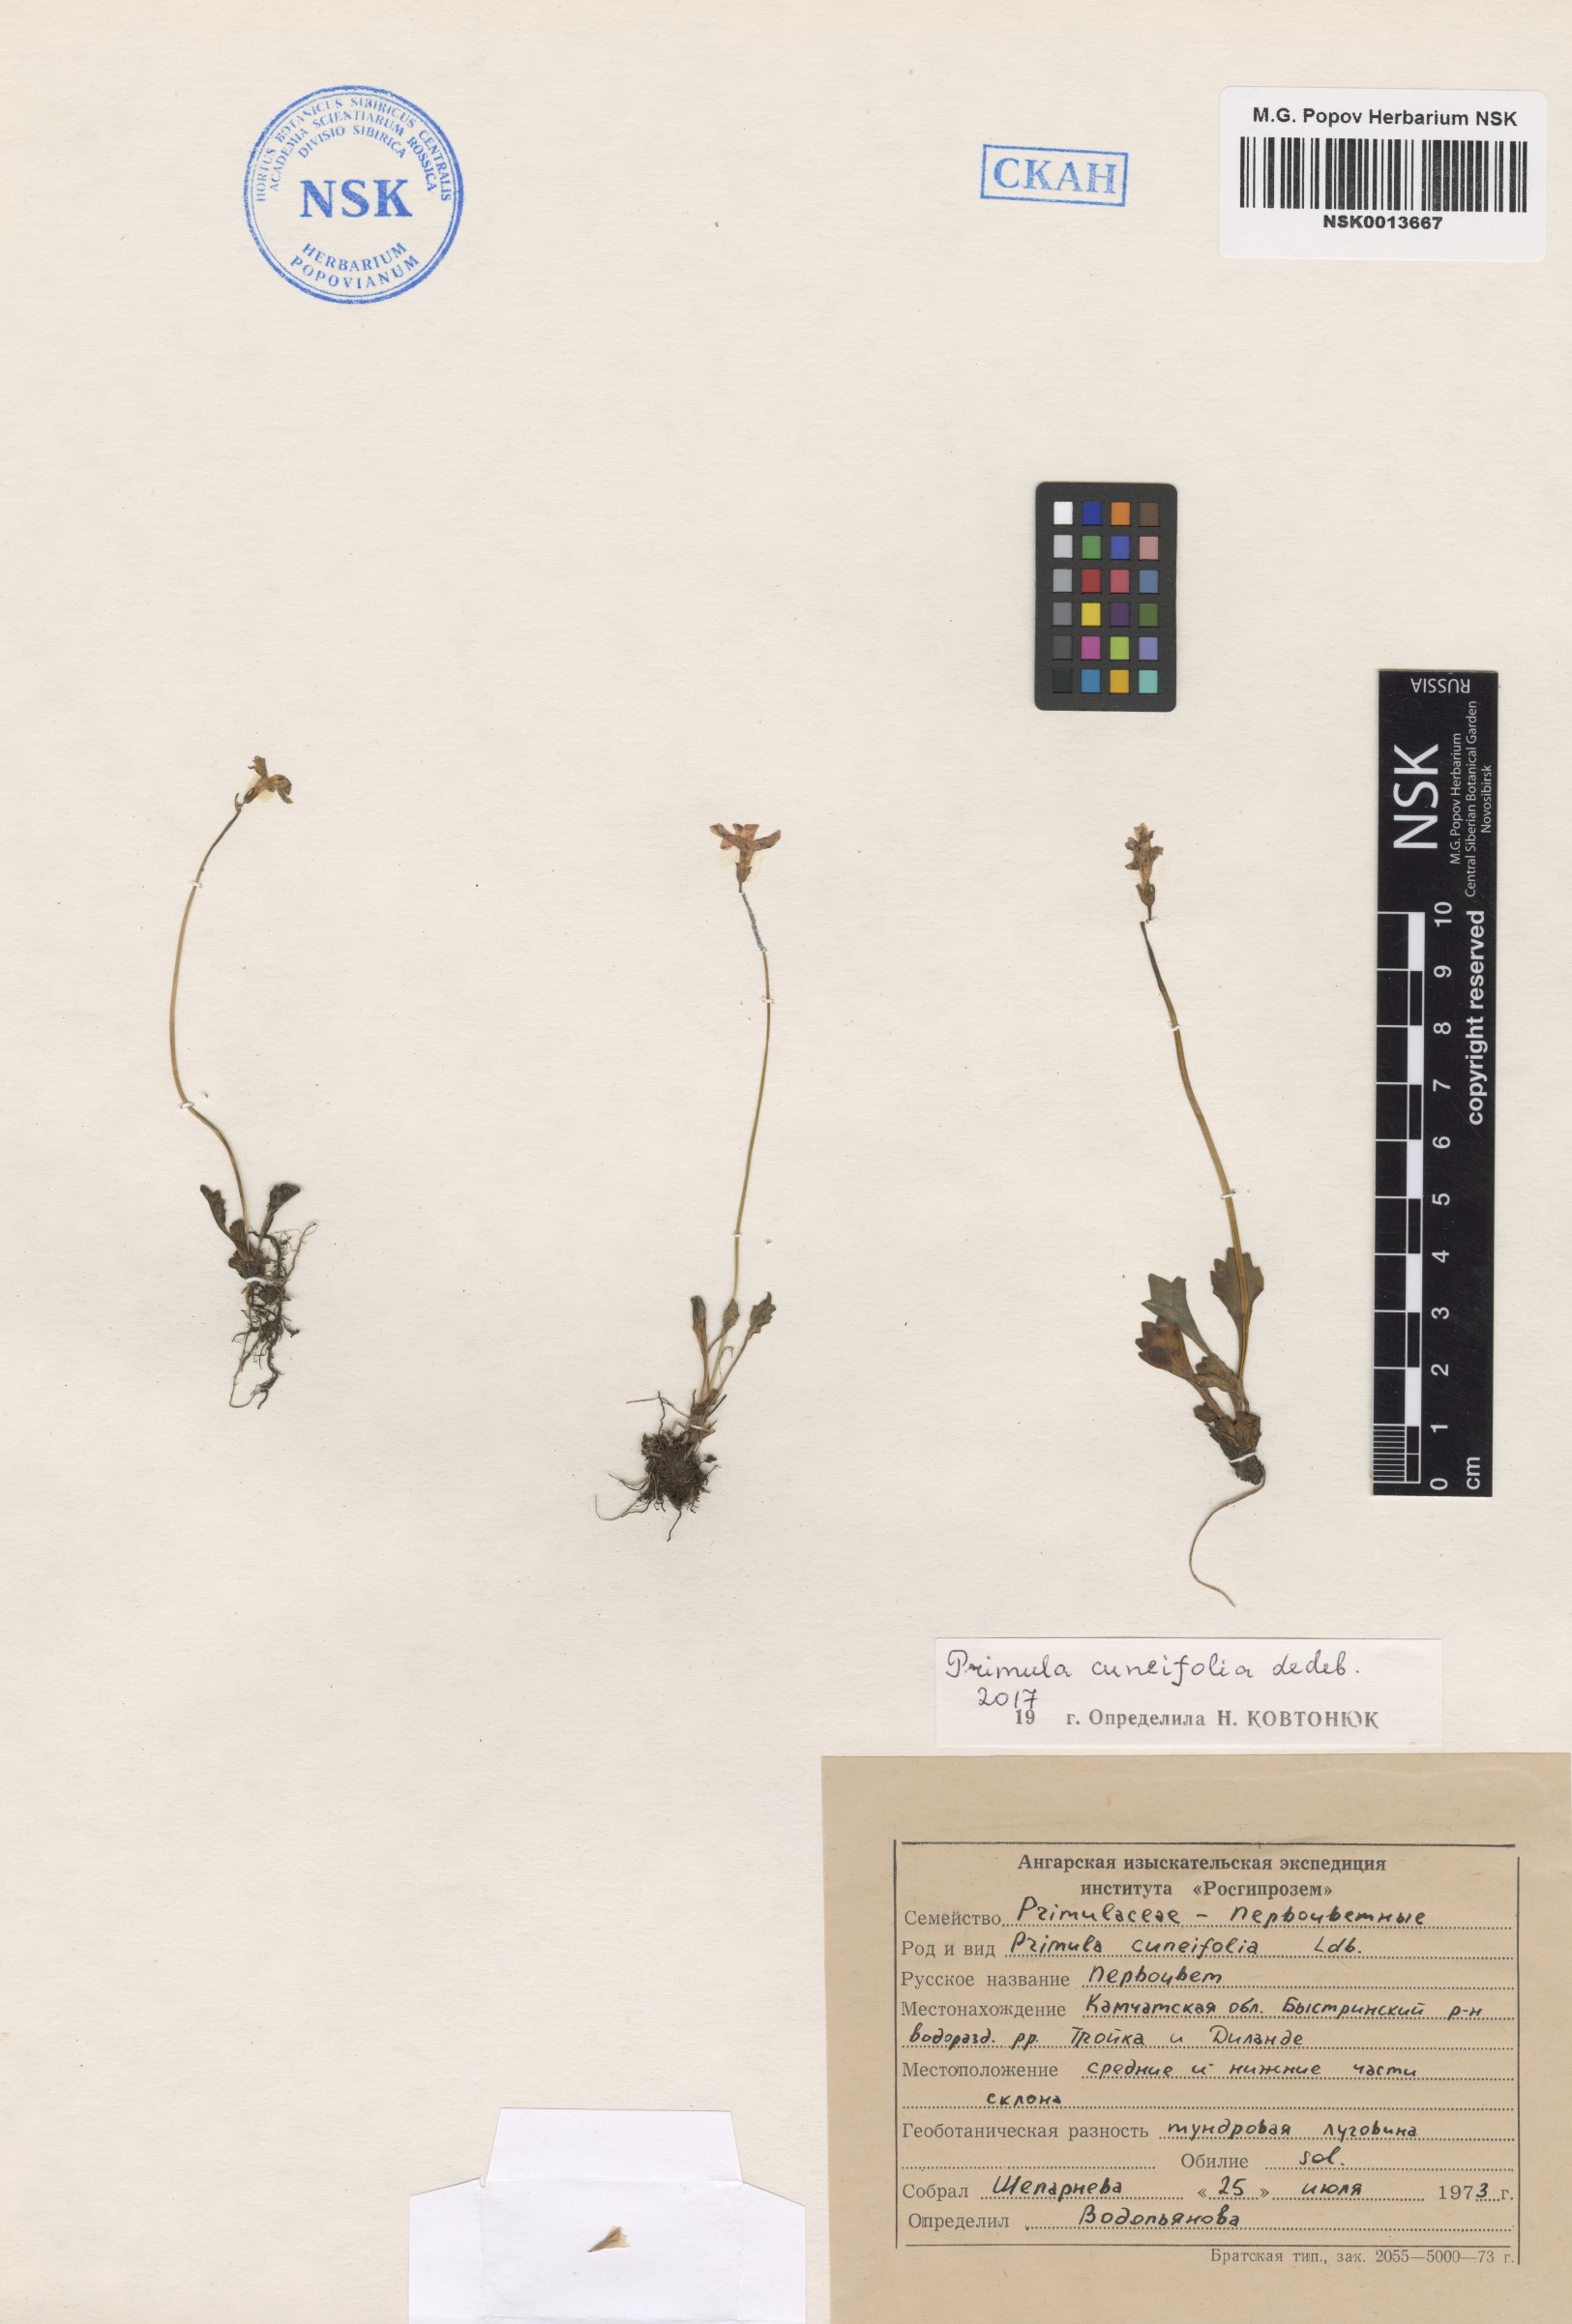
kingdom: Plantae
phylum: Tracheophyta
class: Magnoliopsida
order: Ericales
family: Primulaceae
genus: Primula
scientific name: Primula cuneifolia
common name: Wedge-leaved primrose
